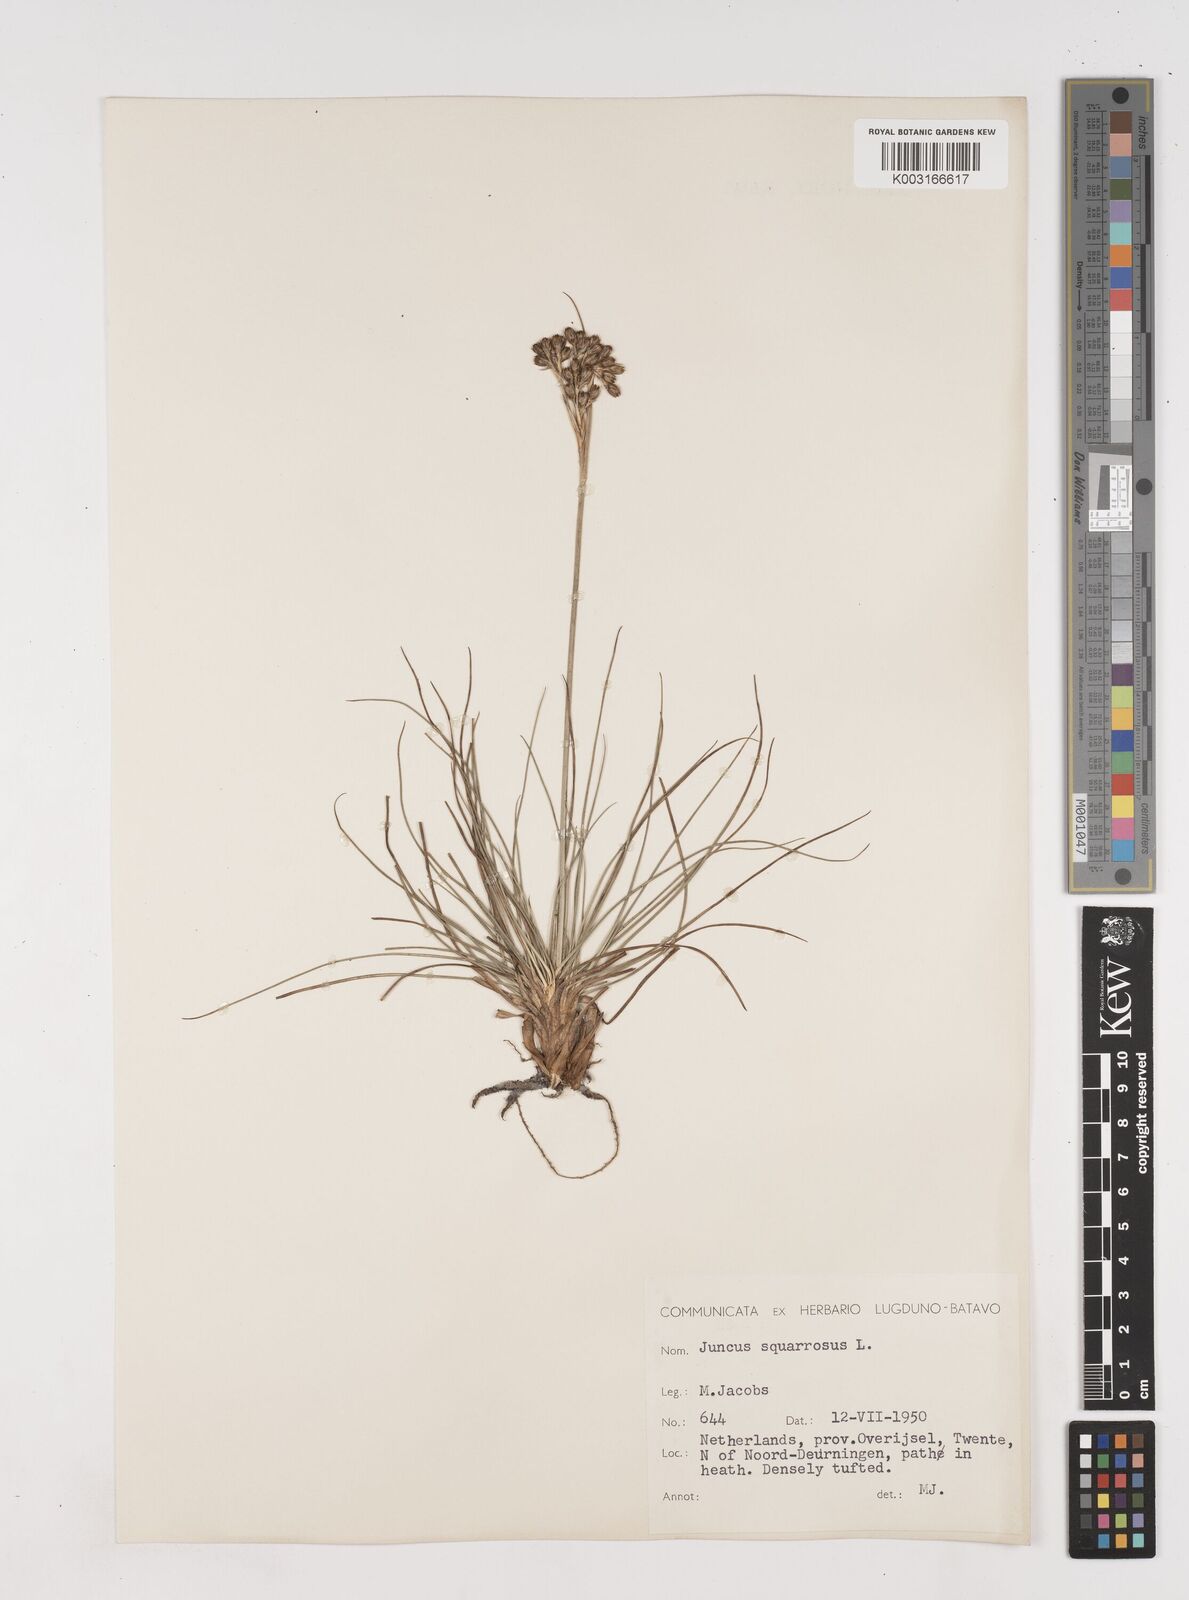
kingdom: Plantae
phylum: Tracheophyta
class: Liliopsida
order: Poales
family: Juncaceae
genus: Juncus
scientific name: Juncus squarrosus
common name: Heath rush
